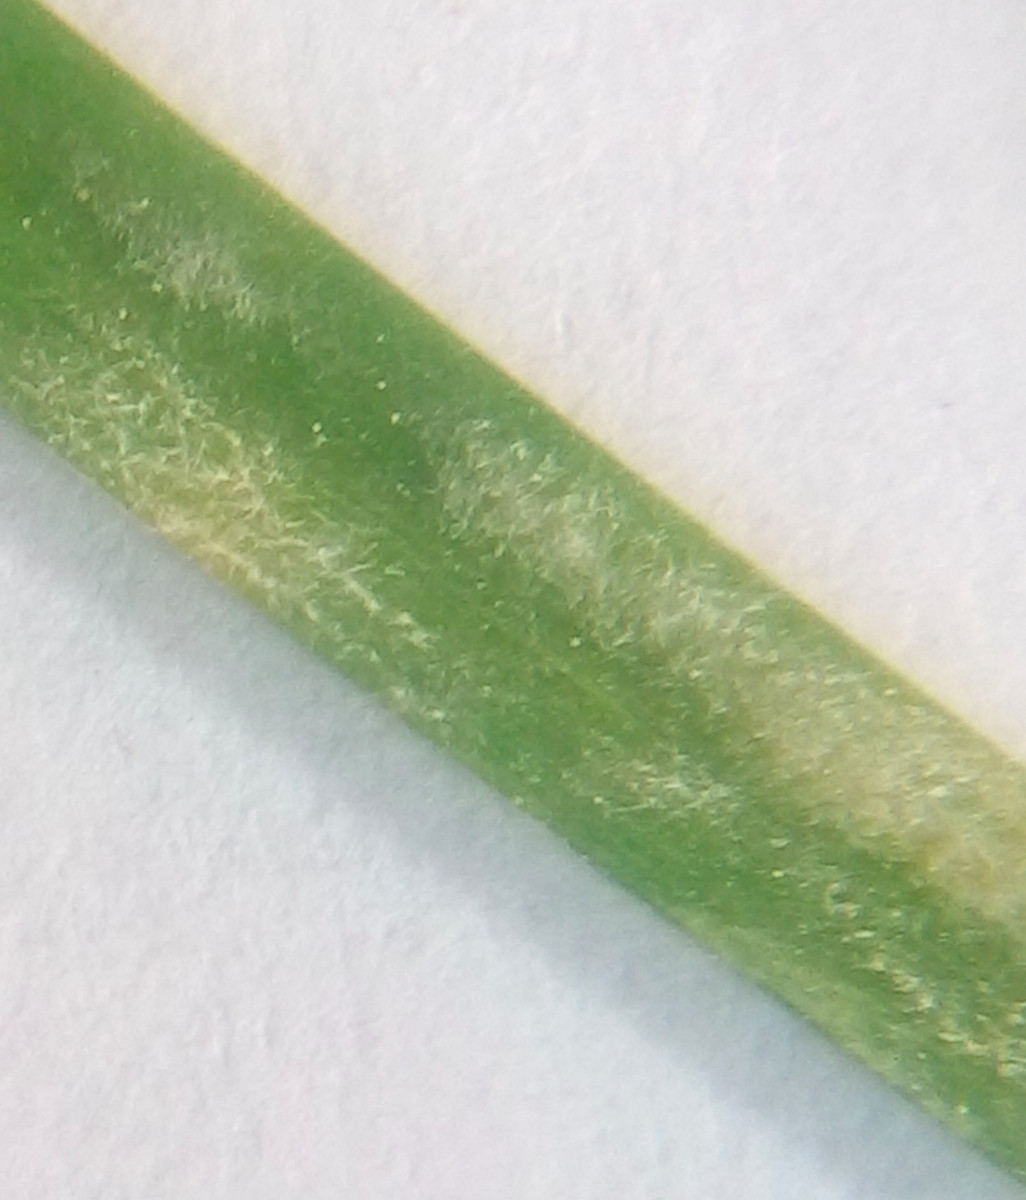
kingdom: Fungi
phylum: Ascomycota
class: Leotiomycetes
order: Helotiales
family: Erysiphaceae
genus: Blumeria
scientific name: Blumeria graminis
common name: græs-meldug
